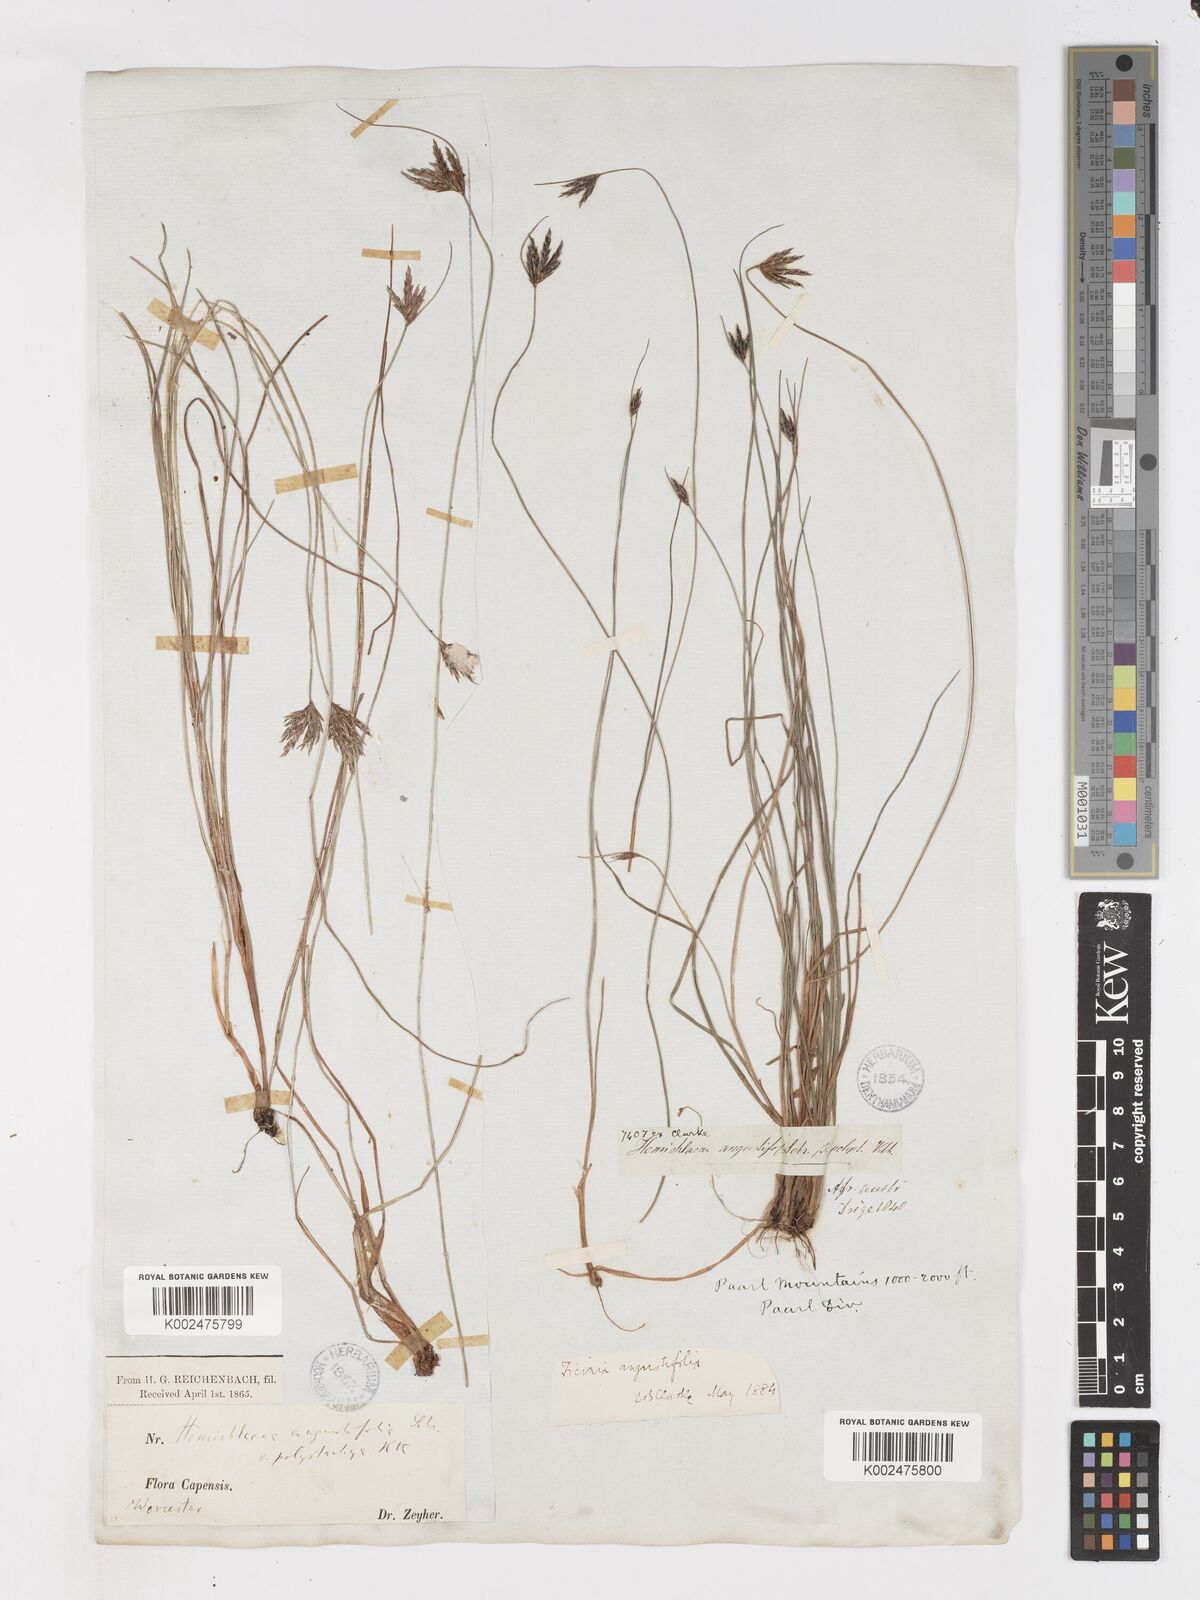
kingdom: Plantae
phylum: Tracheophyta
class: Liliopsida
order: Poales
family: Cyperaceae
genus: Ficinia
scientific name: Ficinia angustifolia
